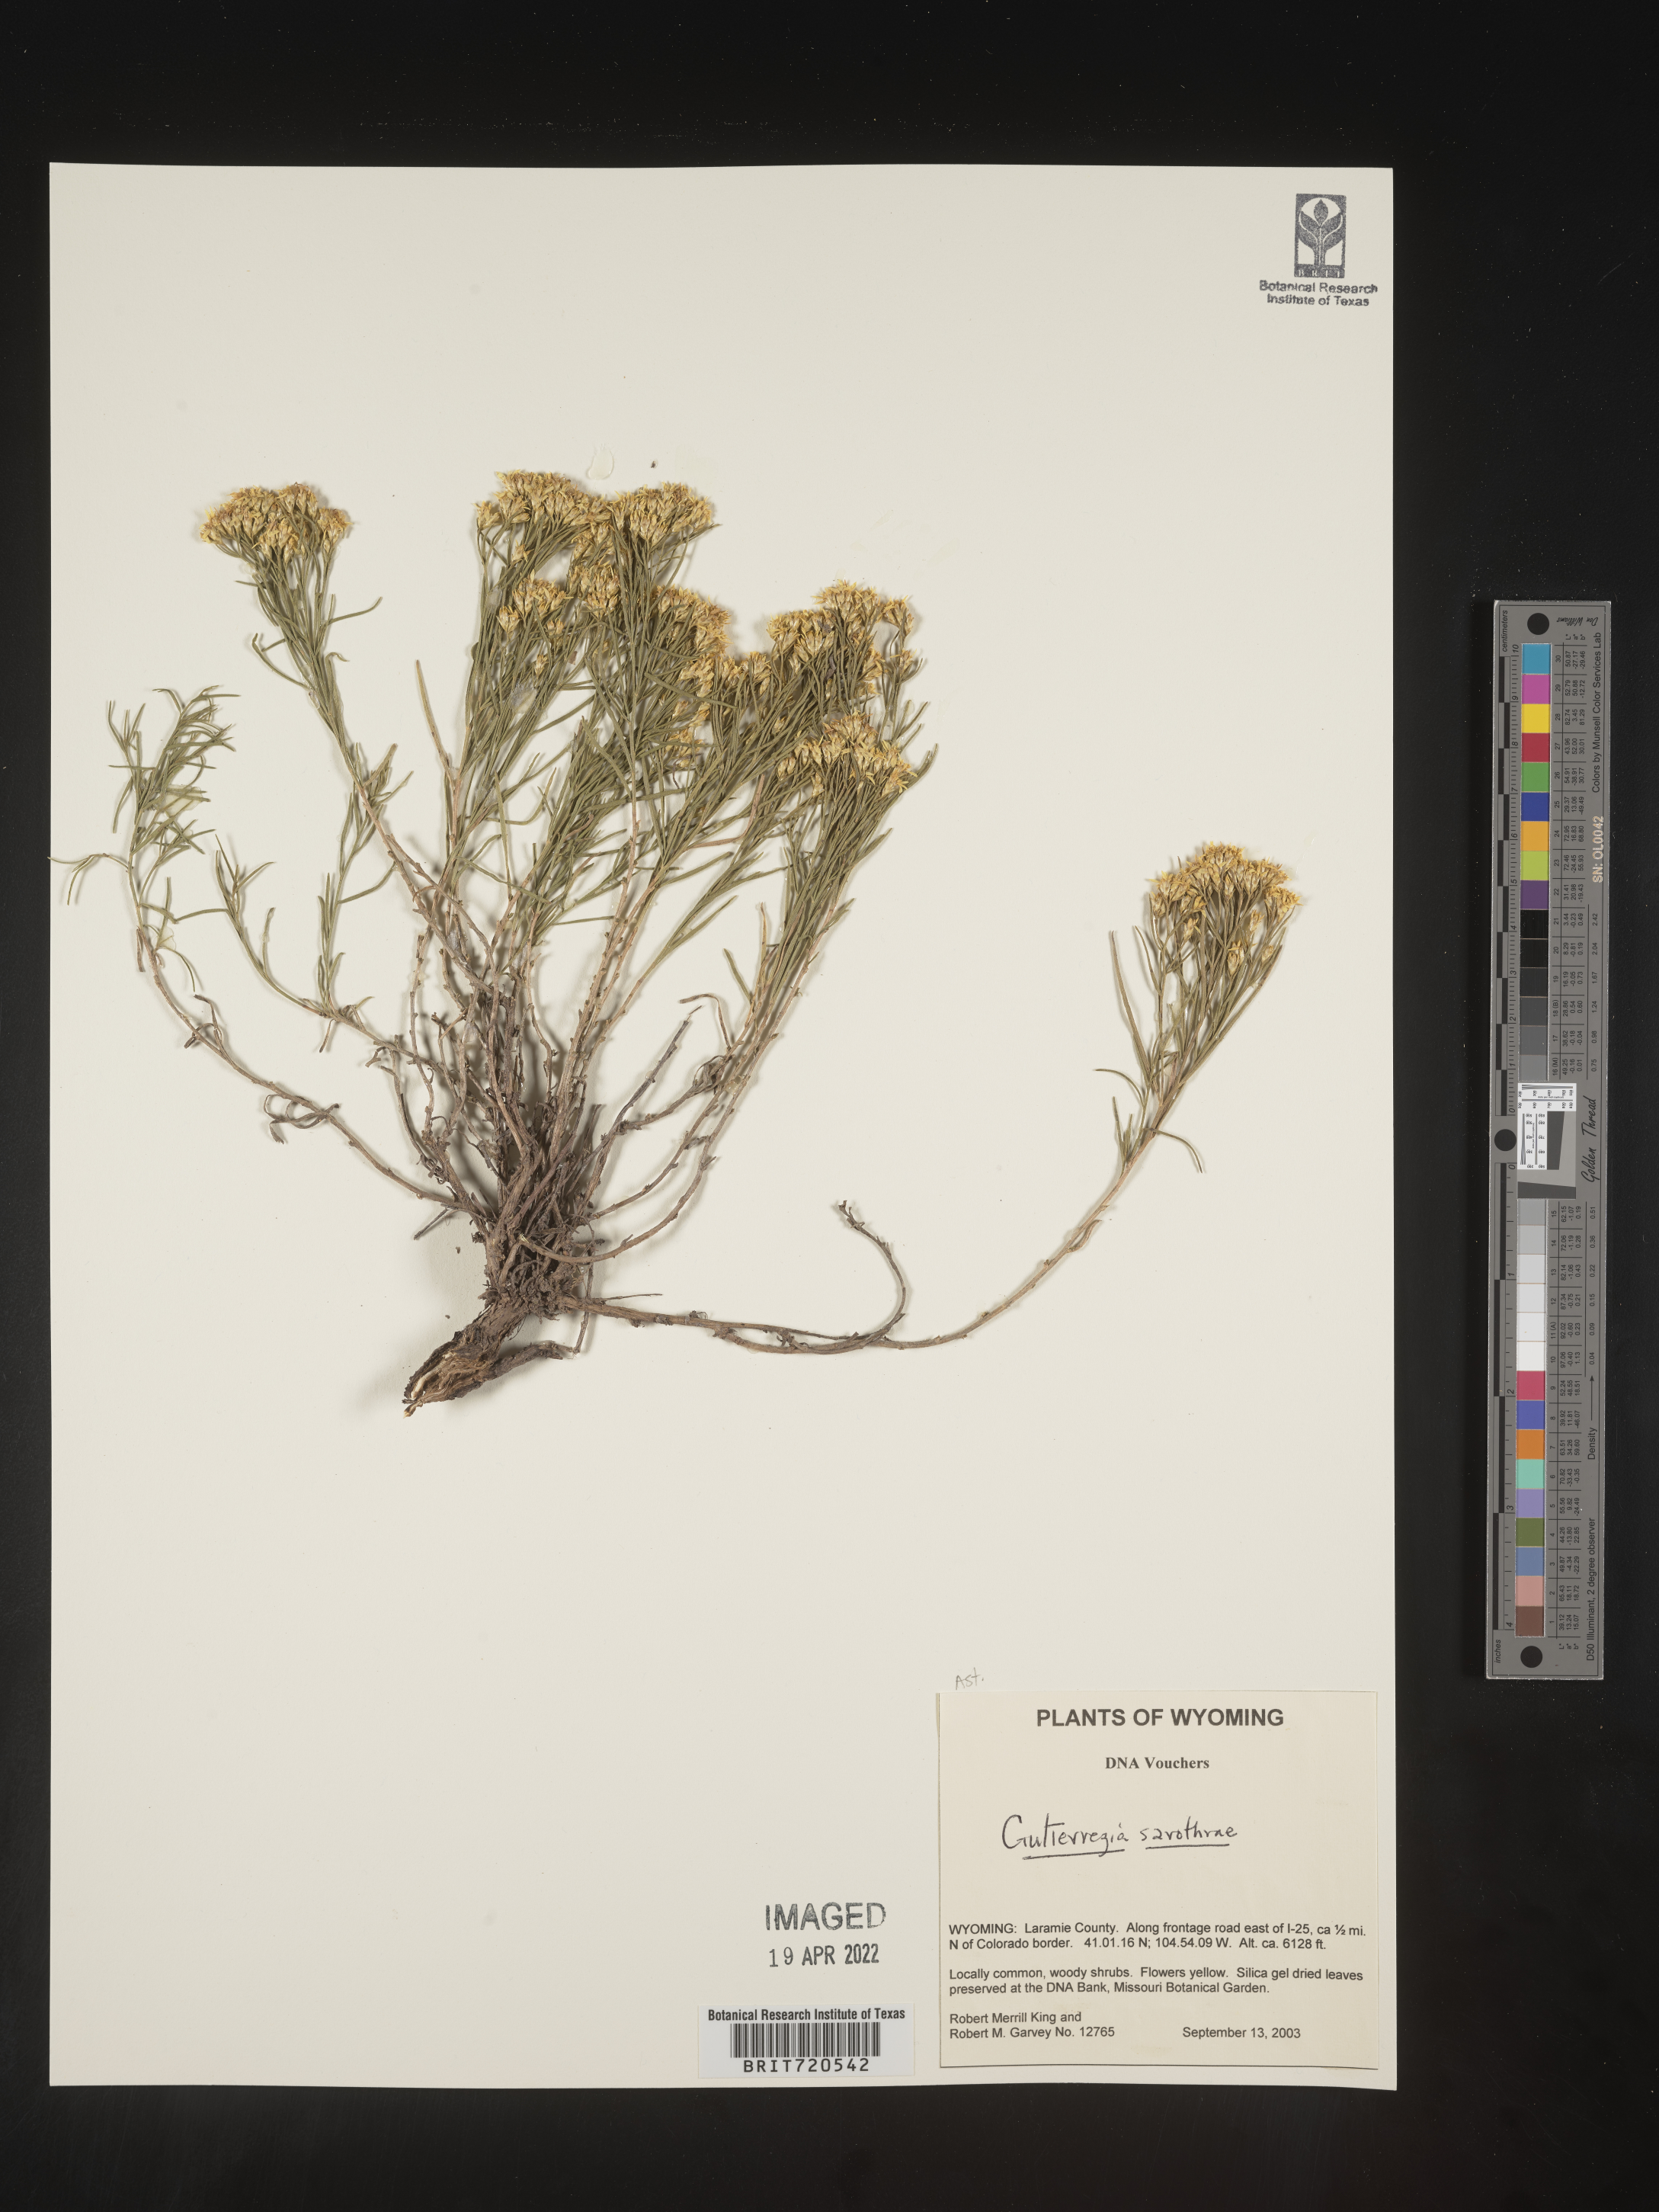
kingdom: Plantae
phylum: Tracheophyta
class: Magnoliopsida
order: Asterales
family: Asteraceae
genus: Gutierrezia
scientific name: Gutierrezia sarothrae
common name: Broom snakeweed
